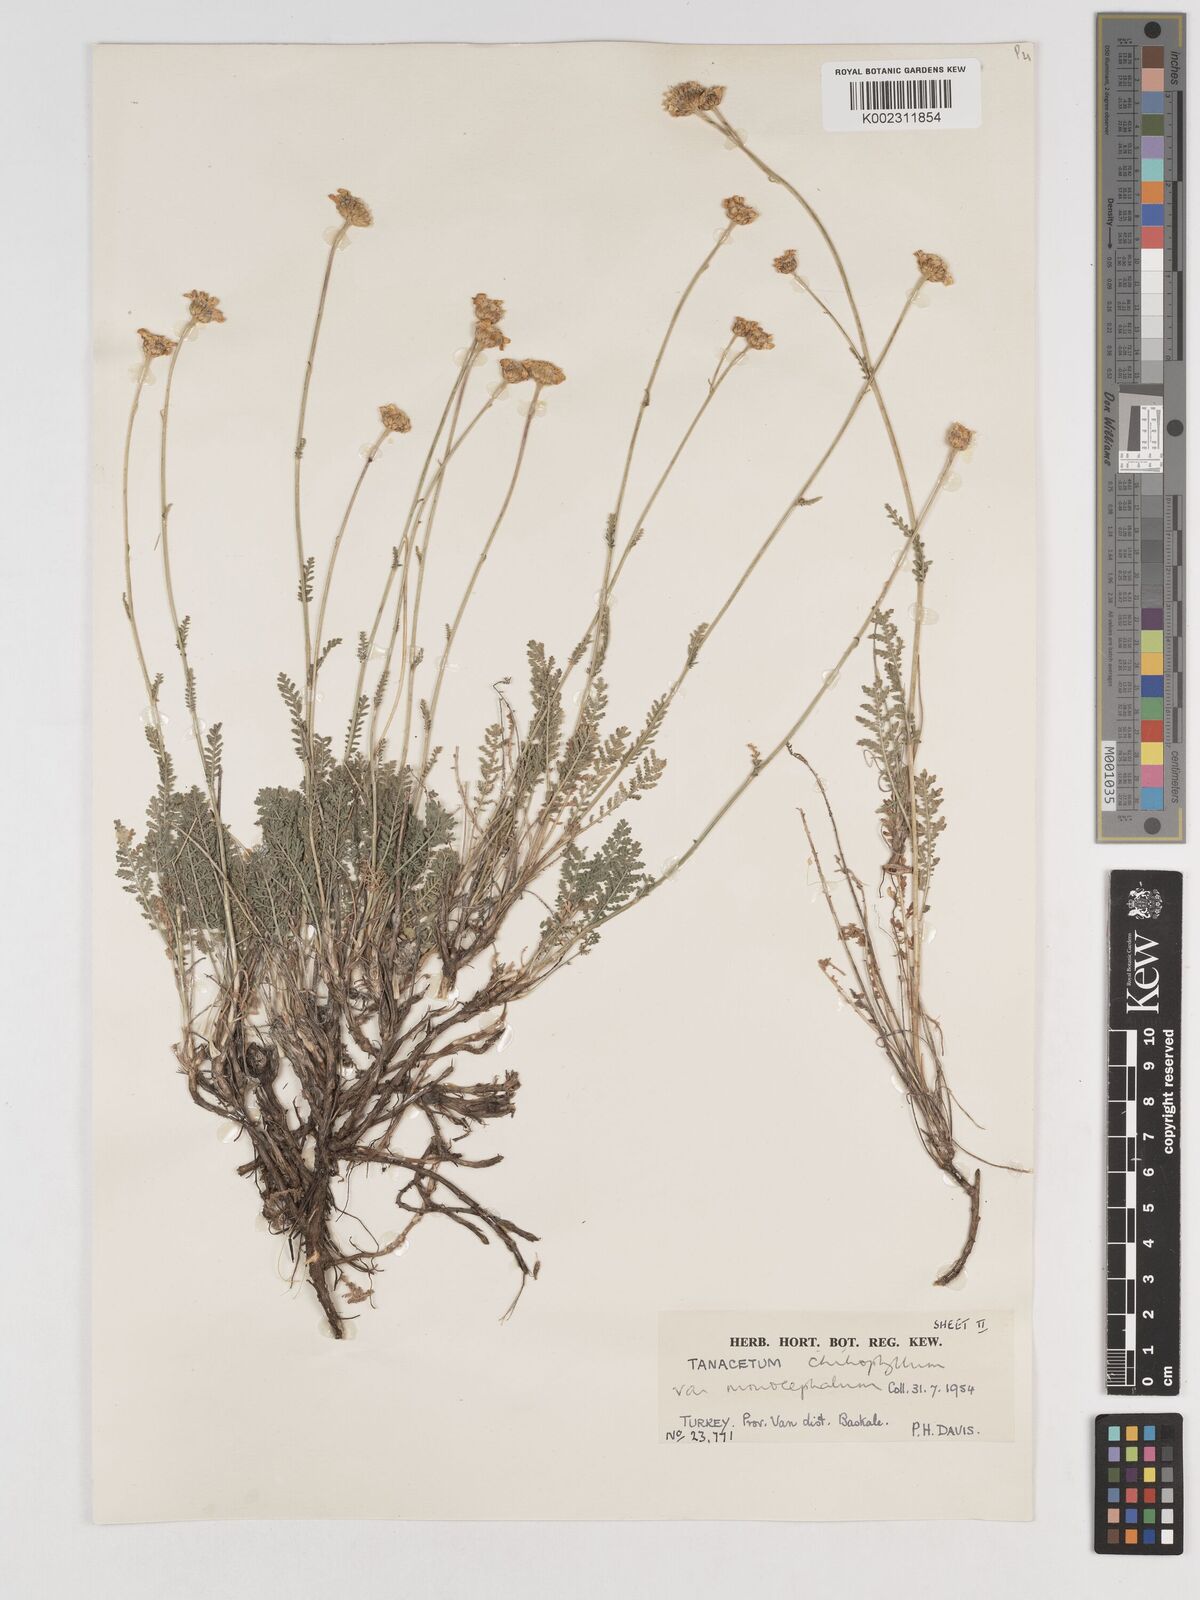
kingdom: Plantae
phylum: Tracheophyta
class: Magnoliopsida
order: Asterales
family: Asteraceae
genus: Tanacetum
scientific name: Tanacetum aureum
